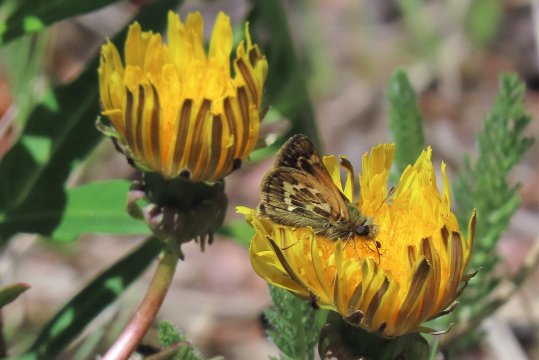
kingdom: Animalia
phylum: Arthropoda
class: Insecta
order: Lepidoptera
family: Hesperiidae
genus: Polites
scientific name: Polites sabuleti
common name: Draco Skipper
